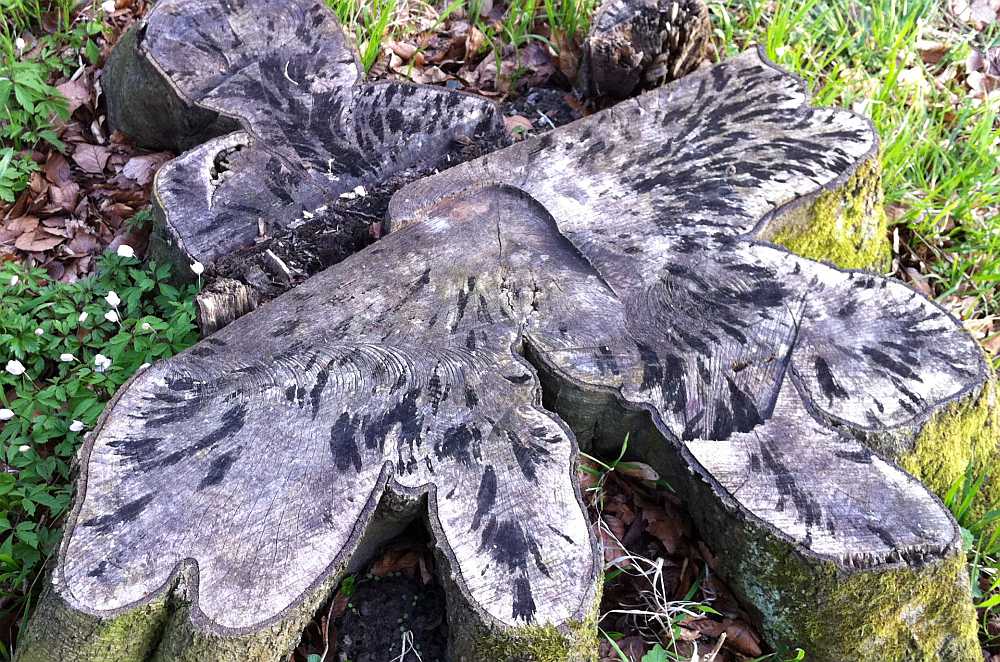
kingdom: Fungi
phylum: Ascomycota
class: Leotiomycetes
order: Helotiales
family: Helotiaceae
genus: Bispora
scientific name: Bispora pallescens
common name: måtte-snitskive
